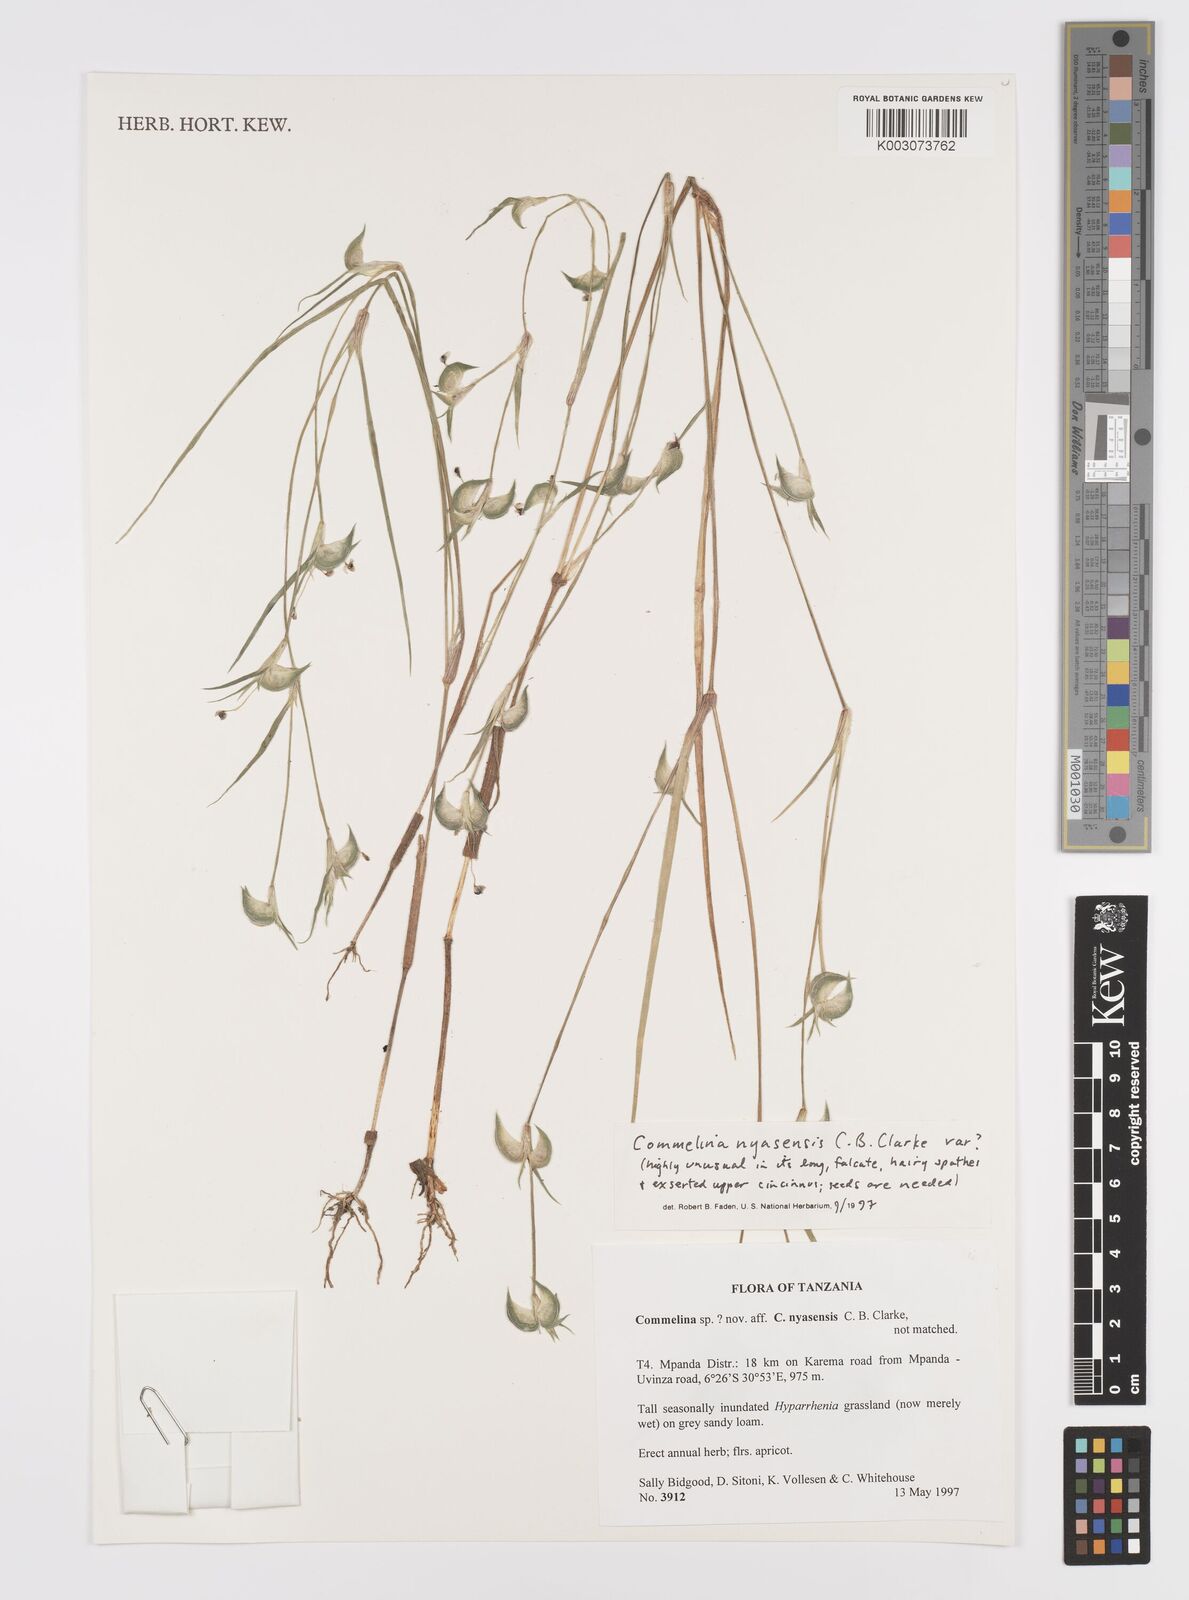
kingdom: Plantae
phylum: Tracheophyta
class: Liliopsida
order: Commelinales
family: Commelinaceae
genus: Commelina
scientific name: Commelina nyasensis
